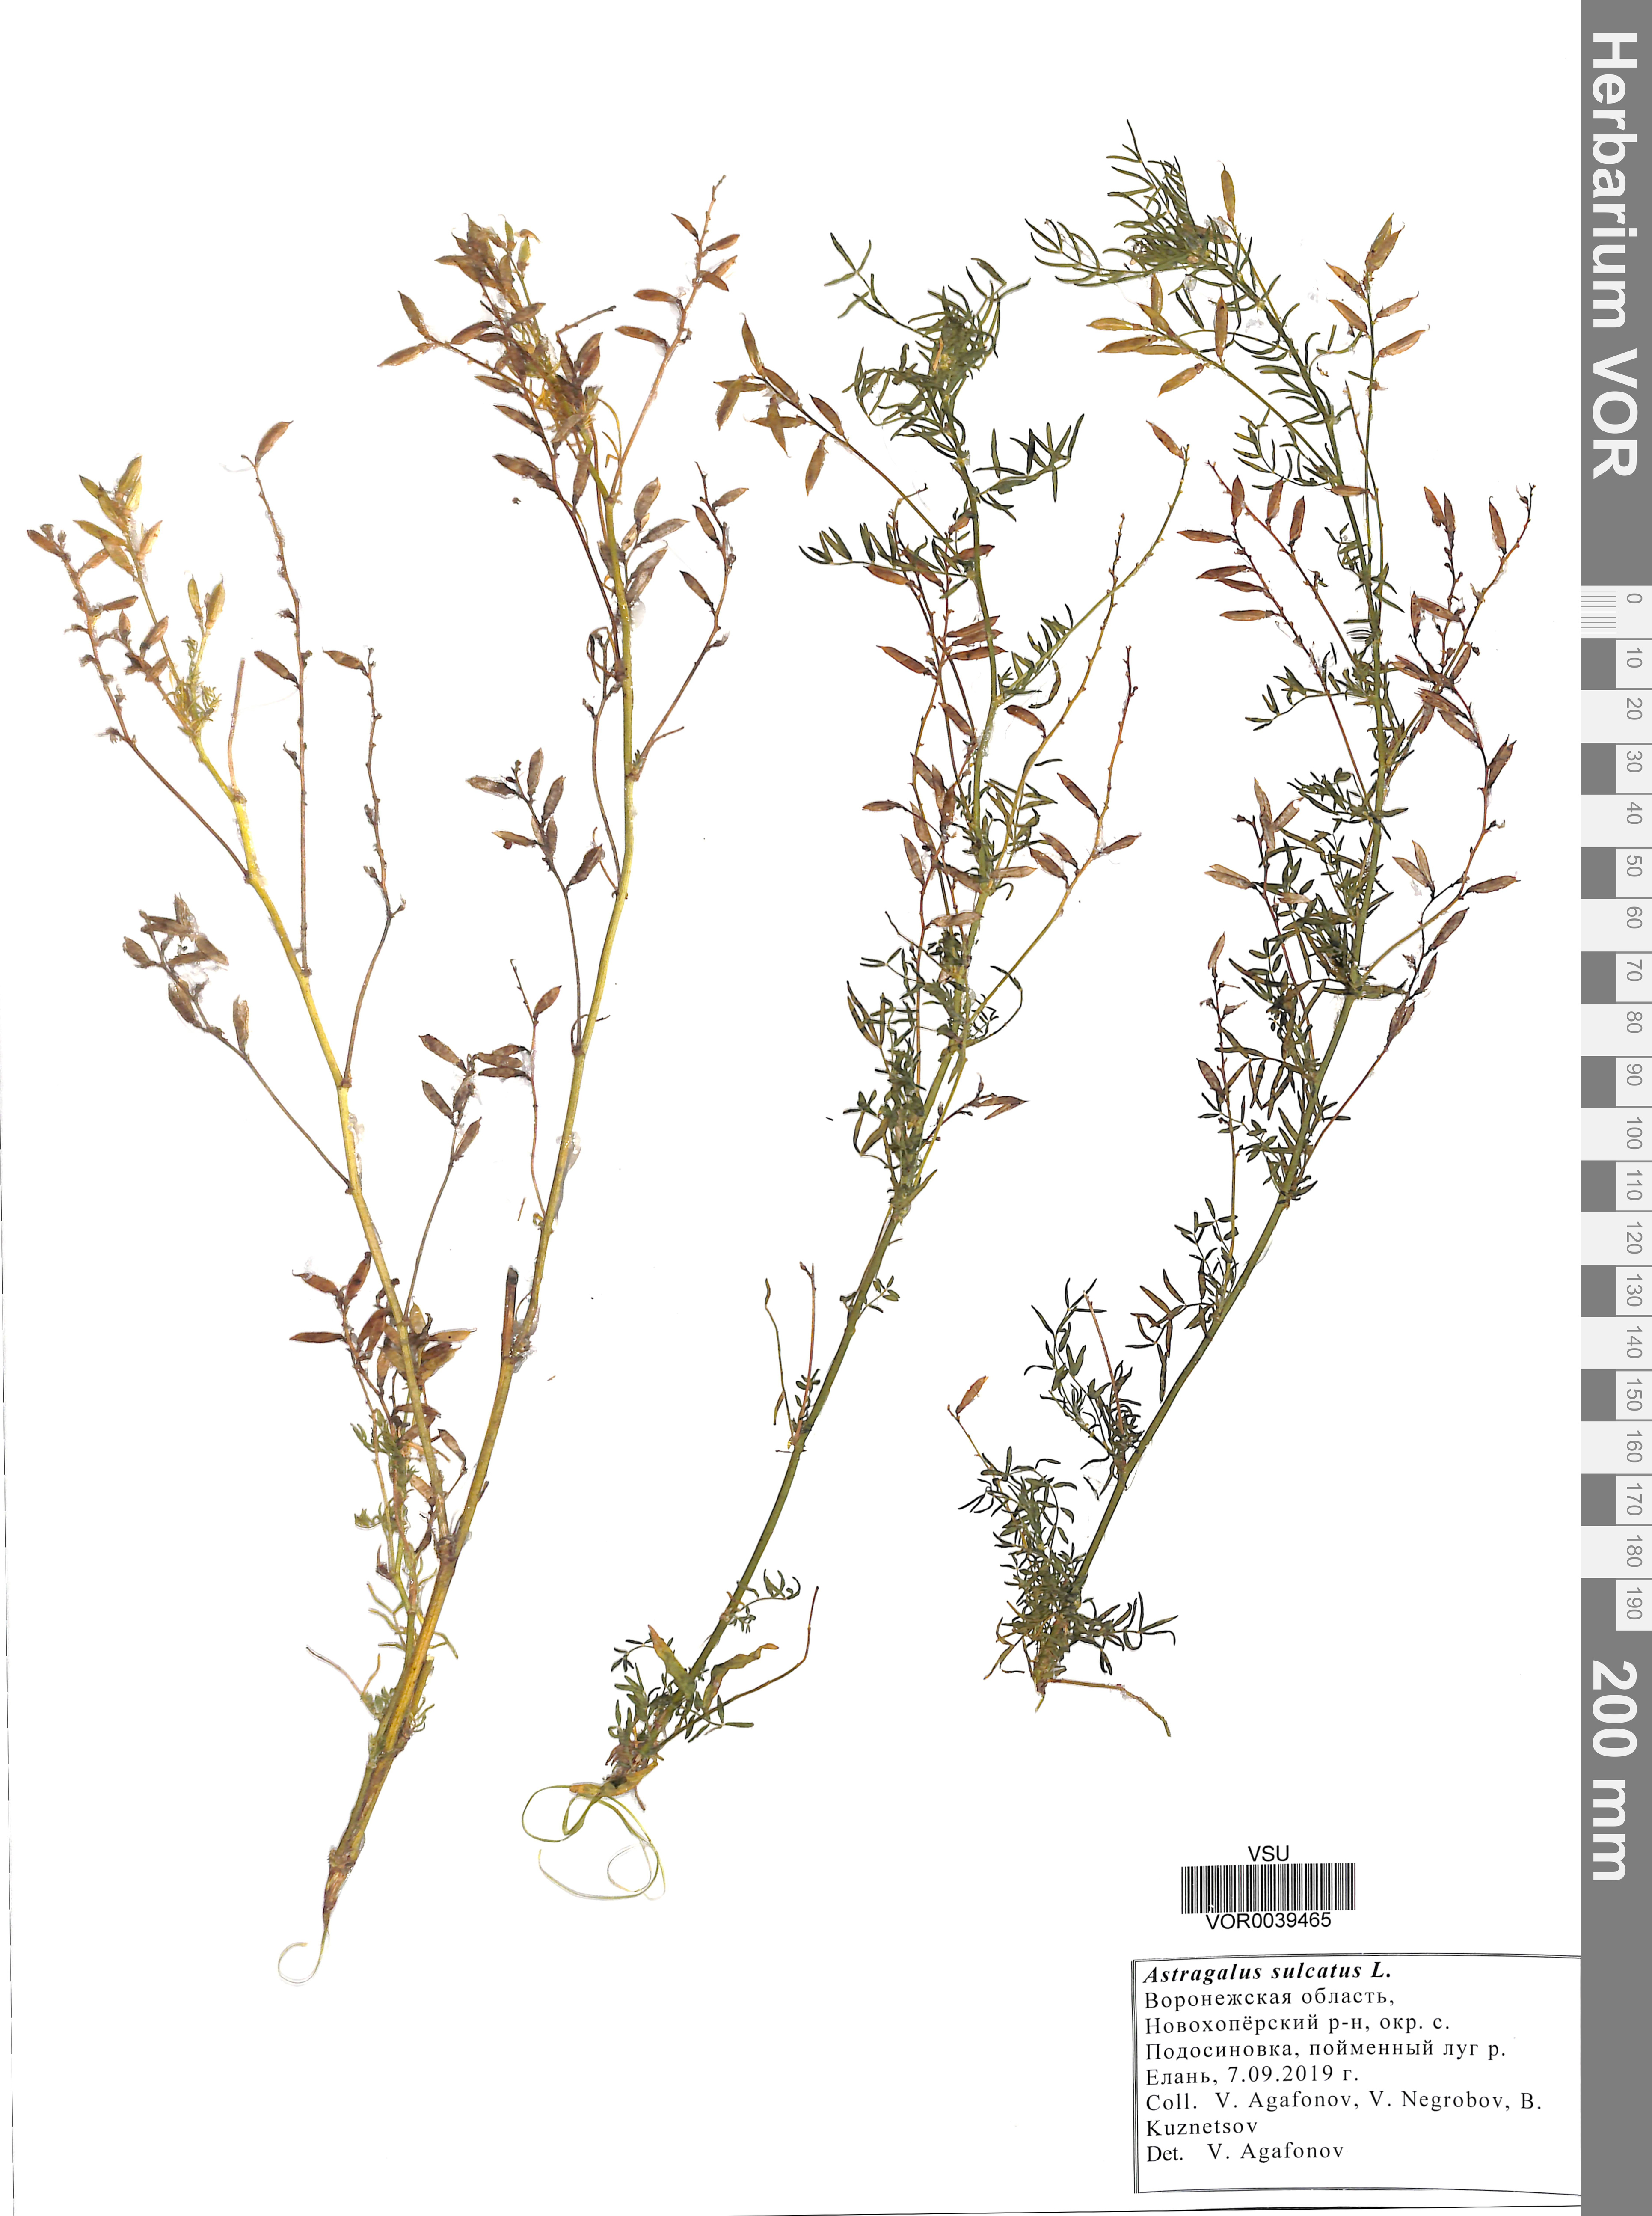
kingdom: Plantae
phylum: Tracheophyta
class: Magnoliopsida
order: Fabales
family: Fabaceae
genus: Astragalus
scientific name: Astragalus sulcatus
